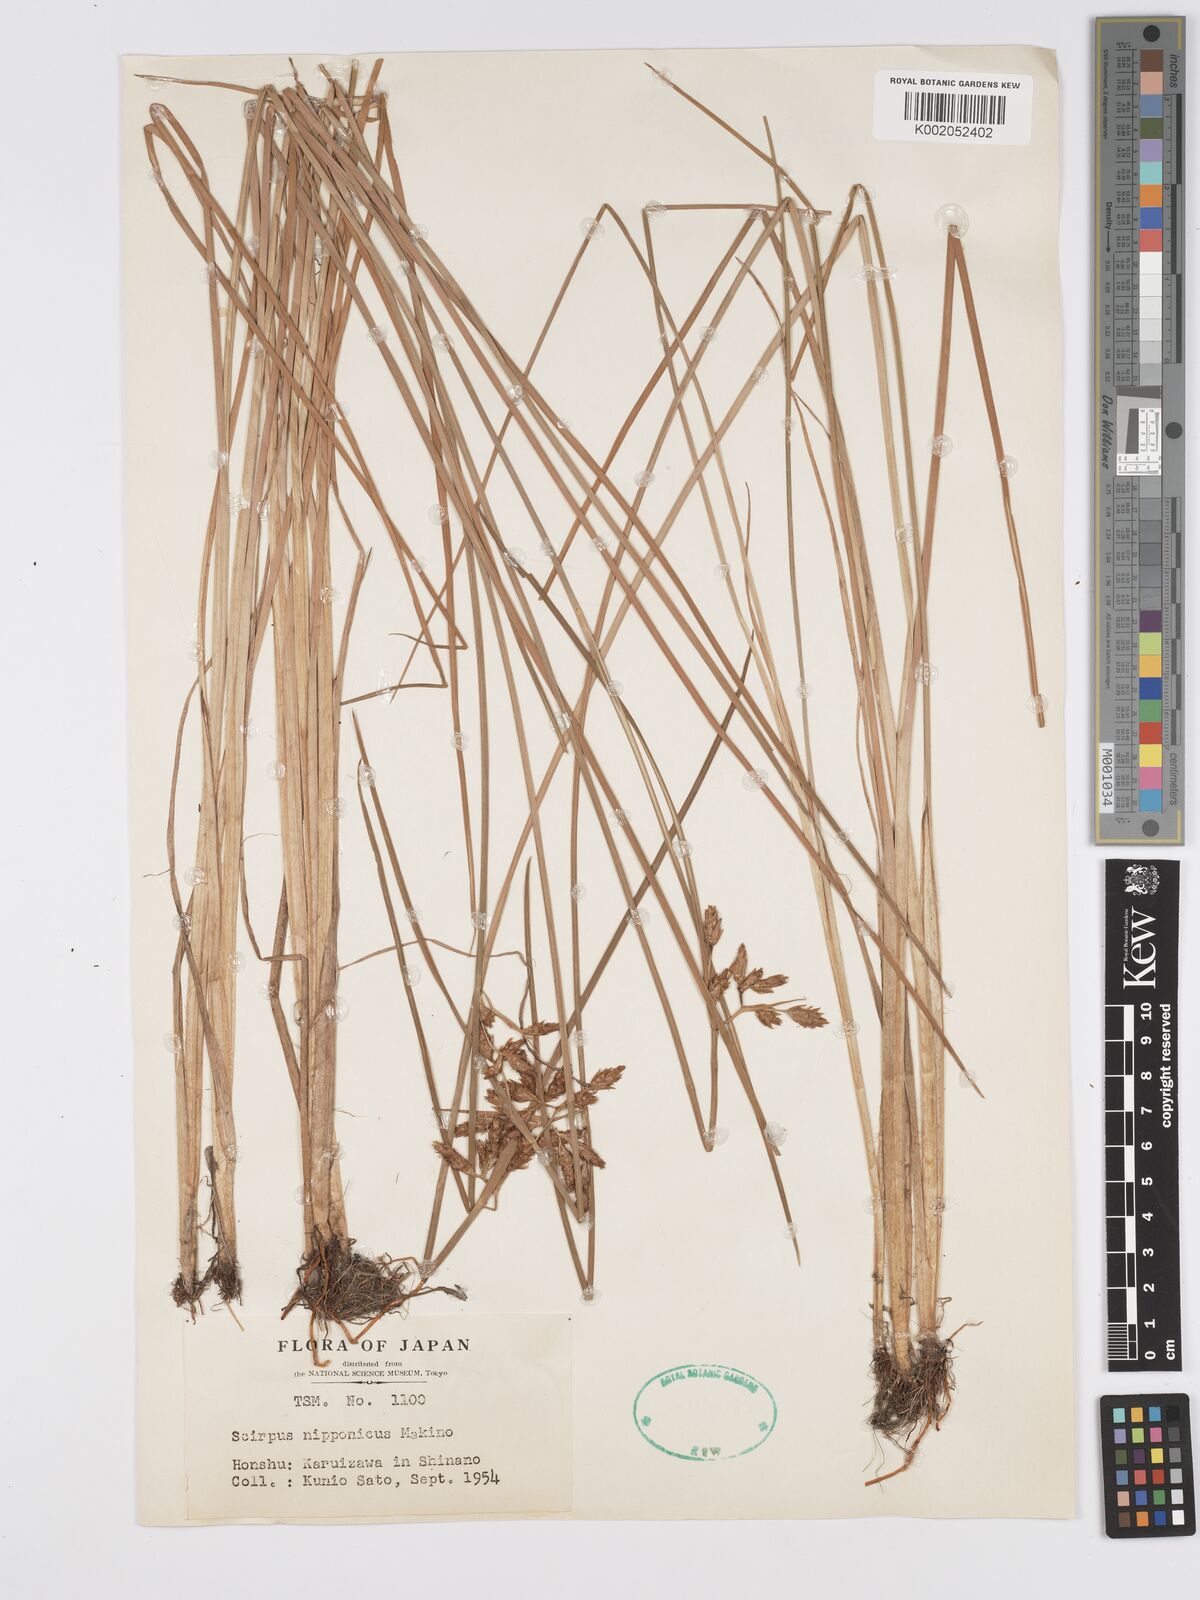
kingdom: Plantae
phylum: Tracheophyta
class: Liliopsida
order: Poales
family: Cyperaceae
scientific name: Cyperaceae
